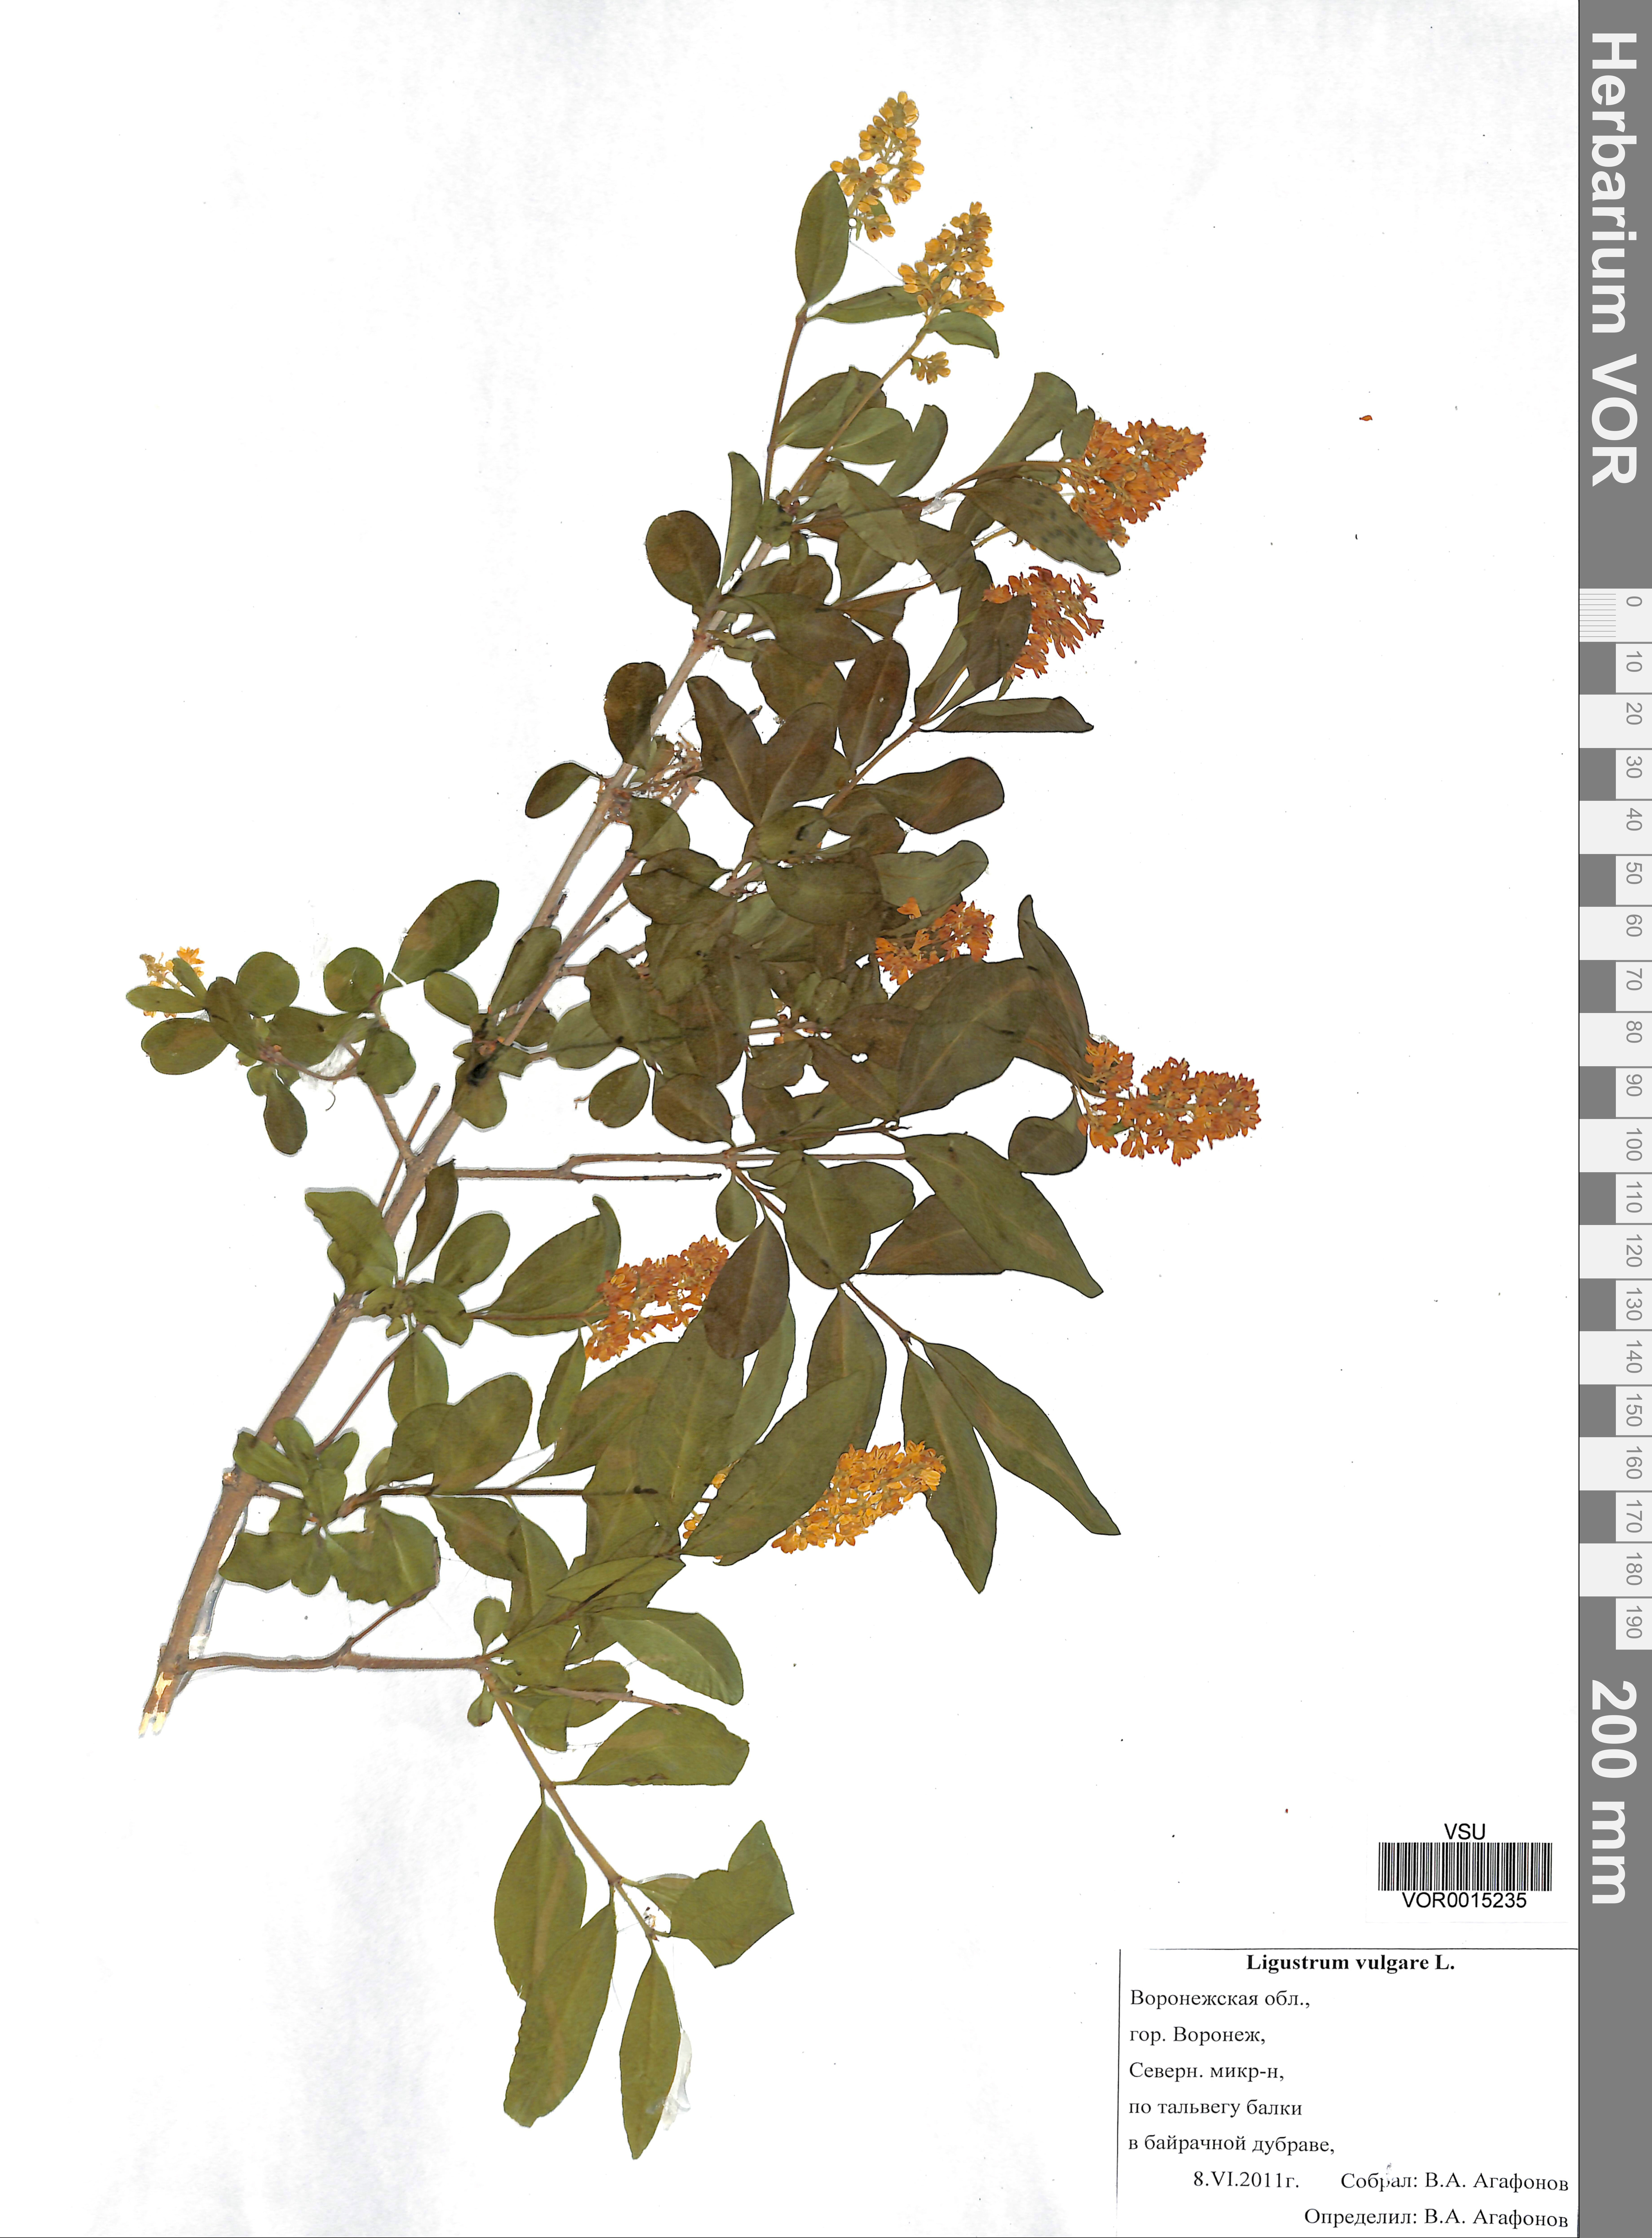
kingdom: Plantae
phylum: Tracheophyta
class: Magnoliopsida
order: Lamiales
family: Oleaceae
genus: Ligustrum
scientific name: Ligustrum vulgare
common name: Wild privet
